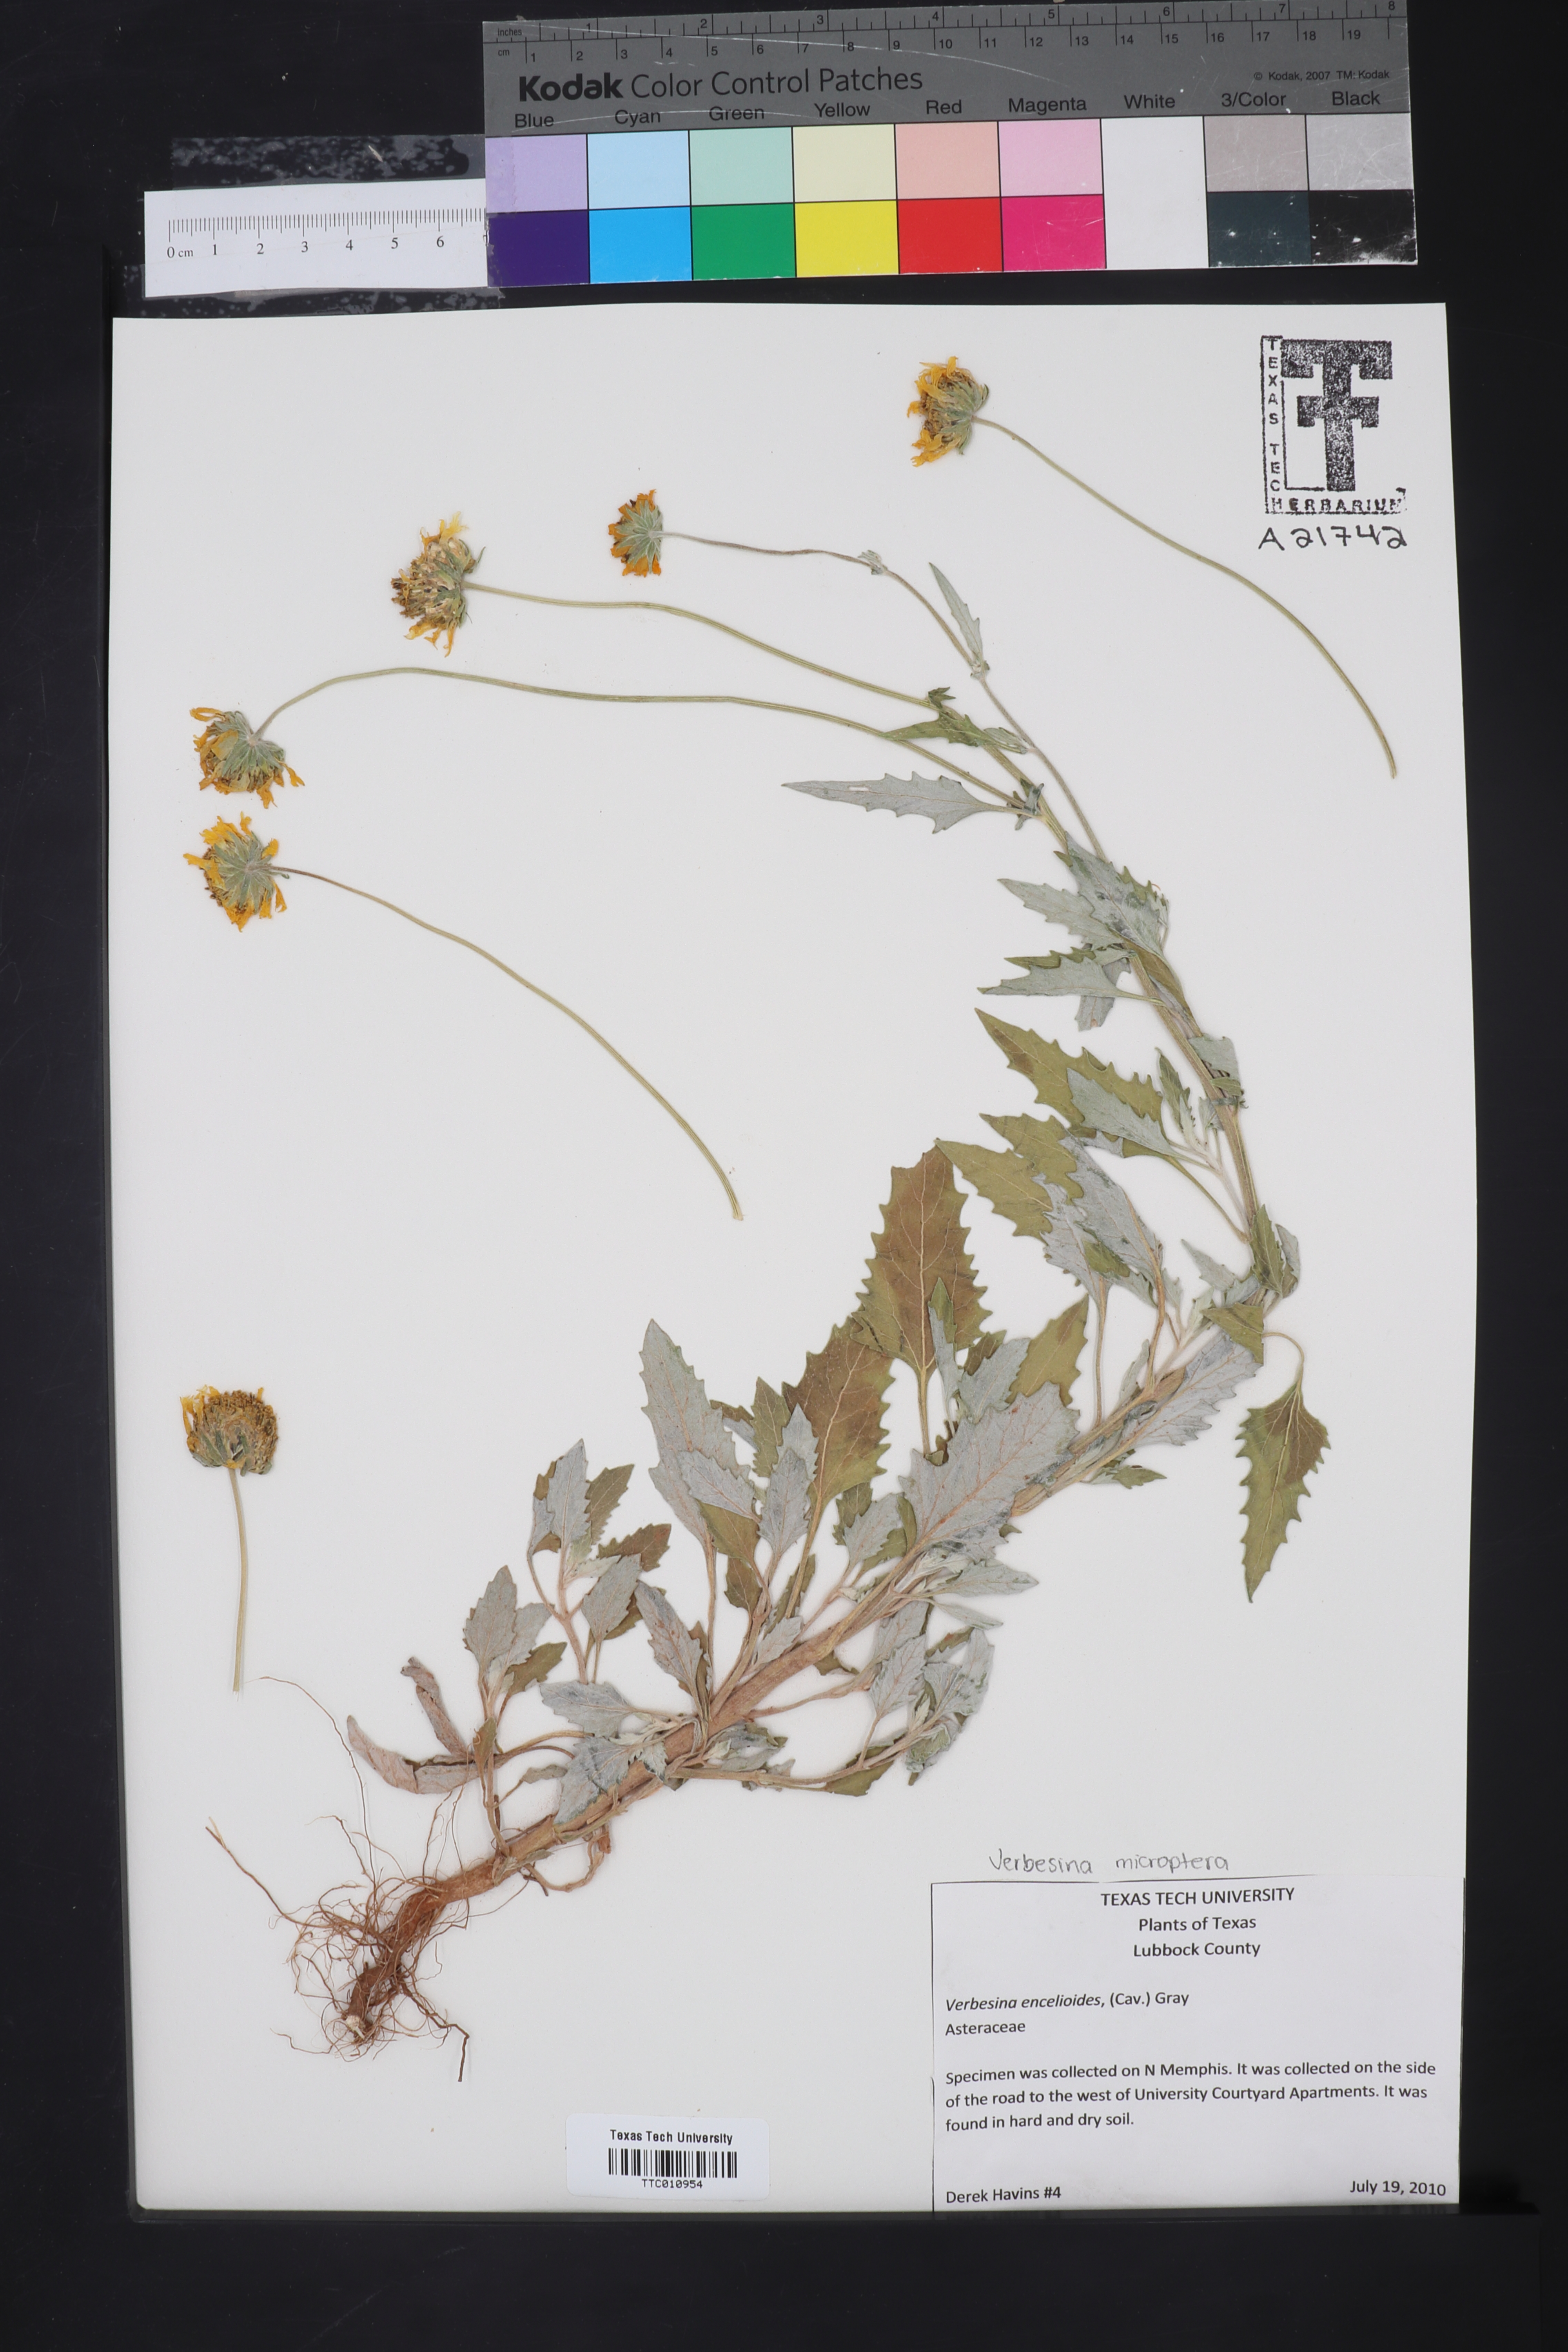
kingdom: Plantae
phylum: Tracheophyta
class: Magnoliopsida
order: Asterales
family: Asteraceae
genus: Verbesina
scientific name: Verbesina encelioides
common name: Golden crownbeard
